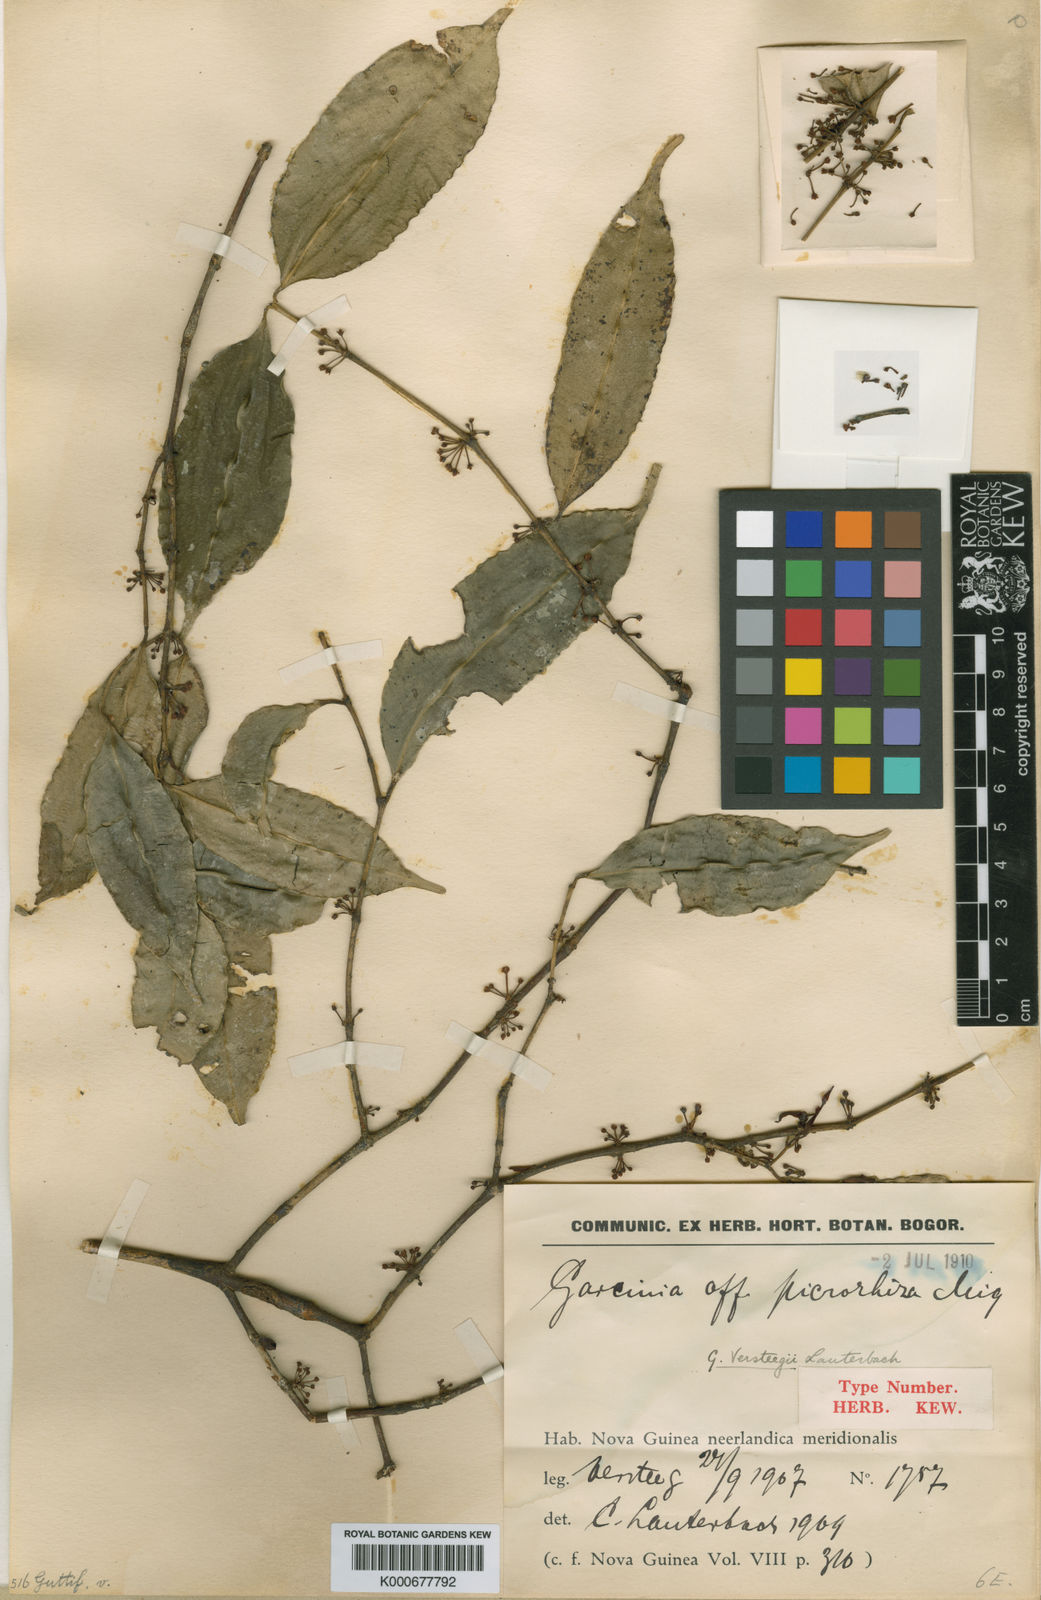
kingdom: Plantae
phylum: Tracheophyta
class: Magnoliopsida
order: Malpighiales
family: Clusiaceae
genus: Garcinia
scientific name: Garcinia versteegii
